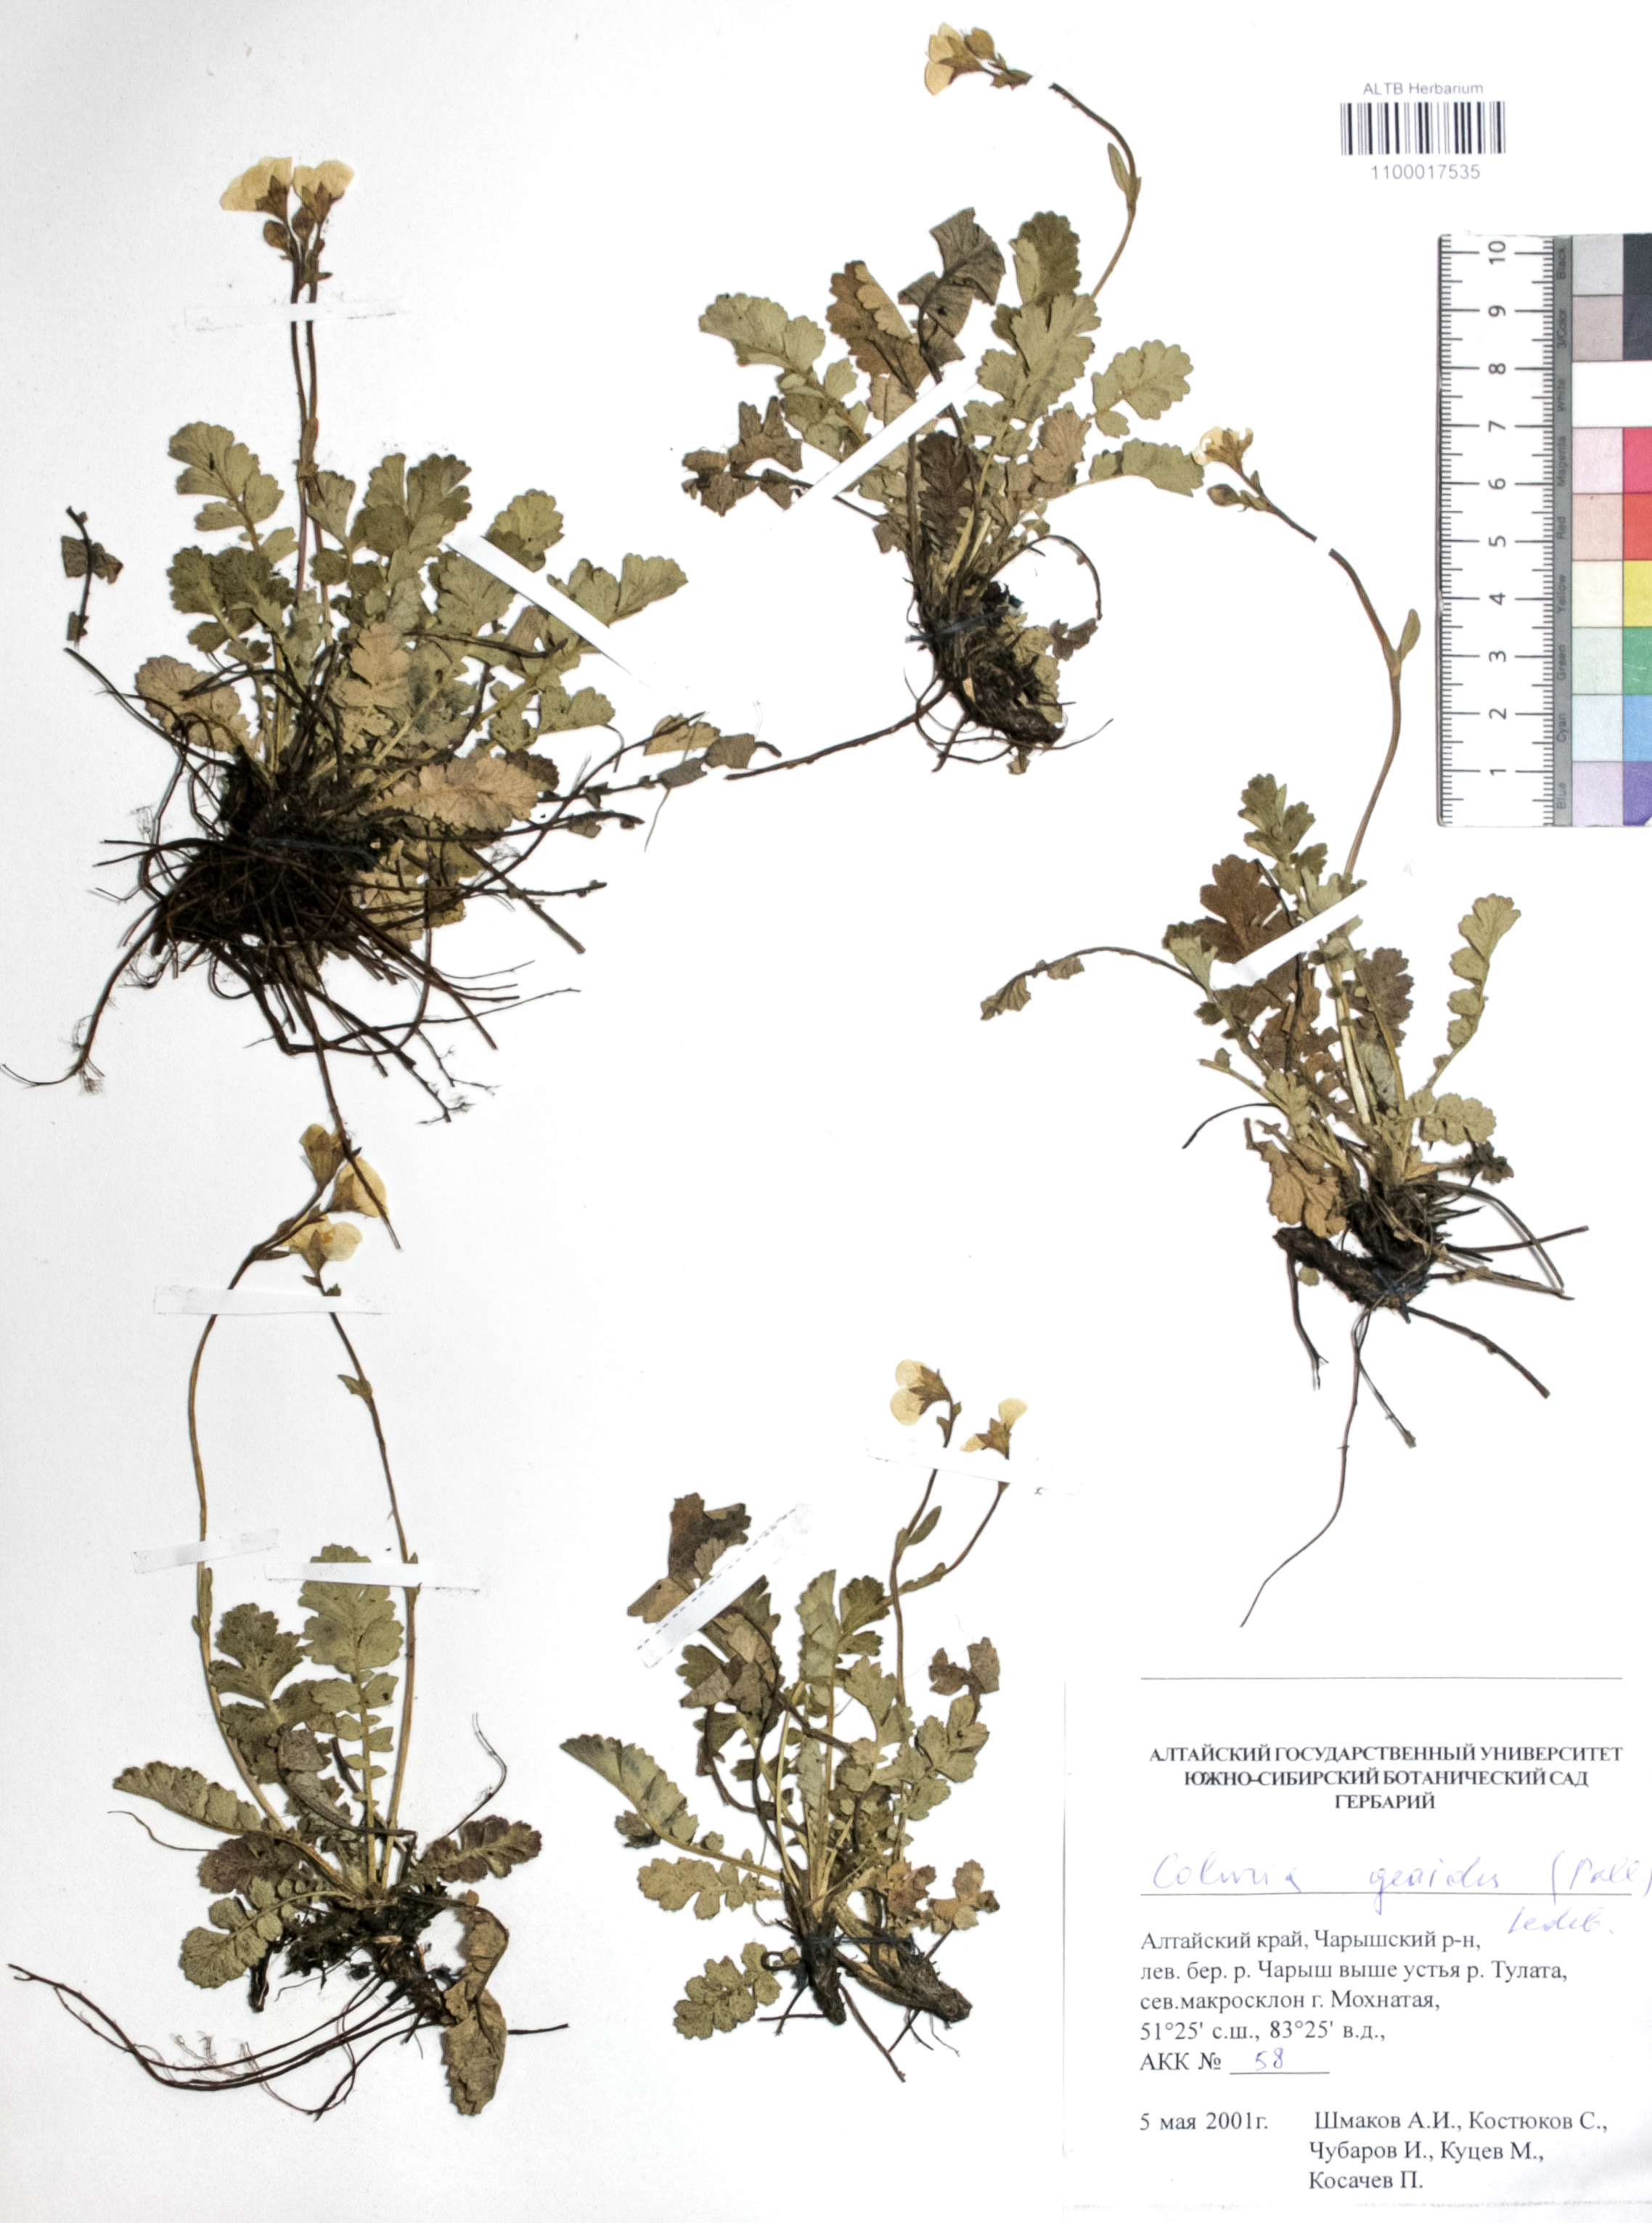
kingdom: Plantae
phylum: Tracheophyta
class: Magnoliopsida
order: Rosales
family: Rosaceae
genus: Geum
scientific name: Geum geoides
